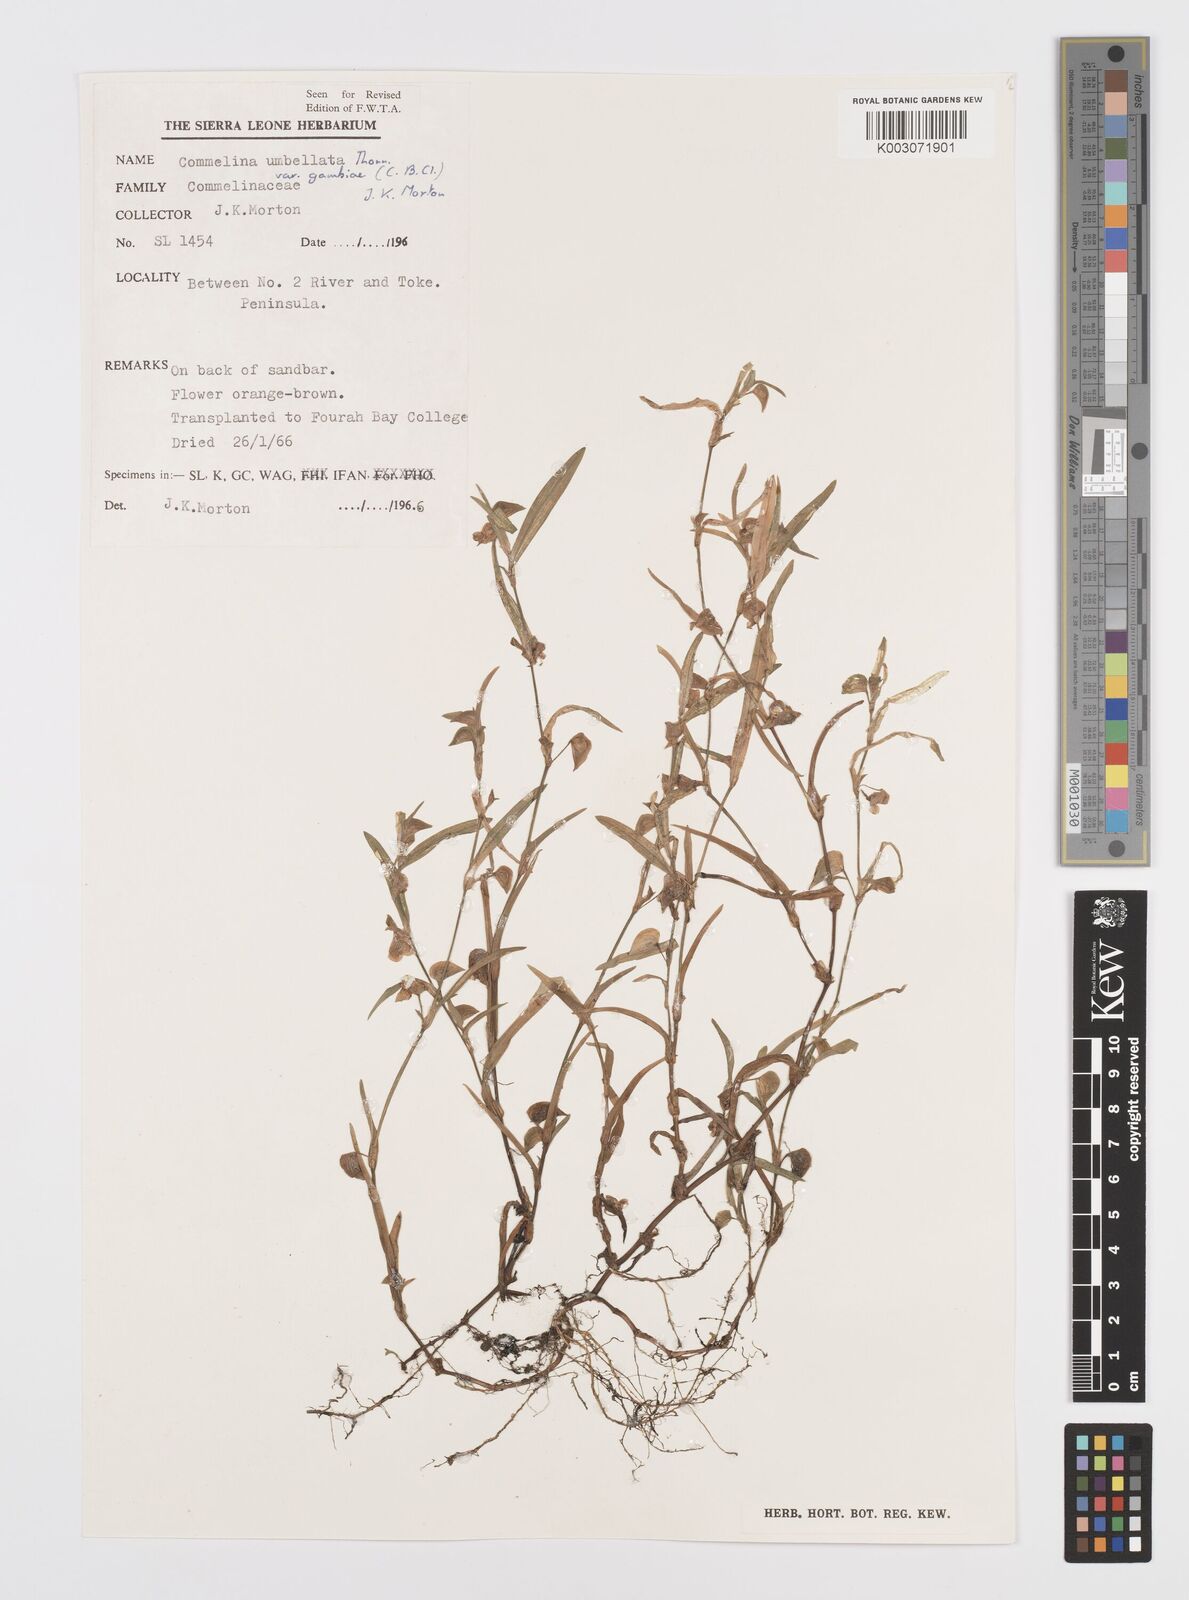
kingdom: Plantae
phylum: Tracheophyta
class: Liliopsida
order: Commelinales
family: Commelinaceae
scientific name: Commelinaceae
